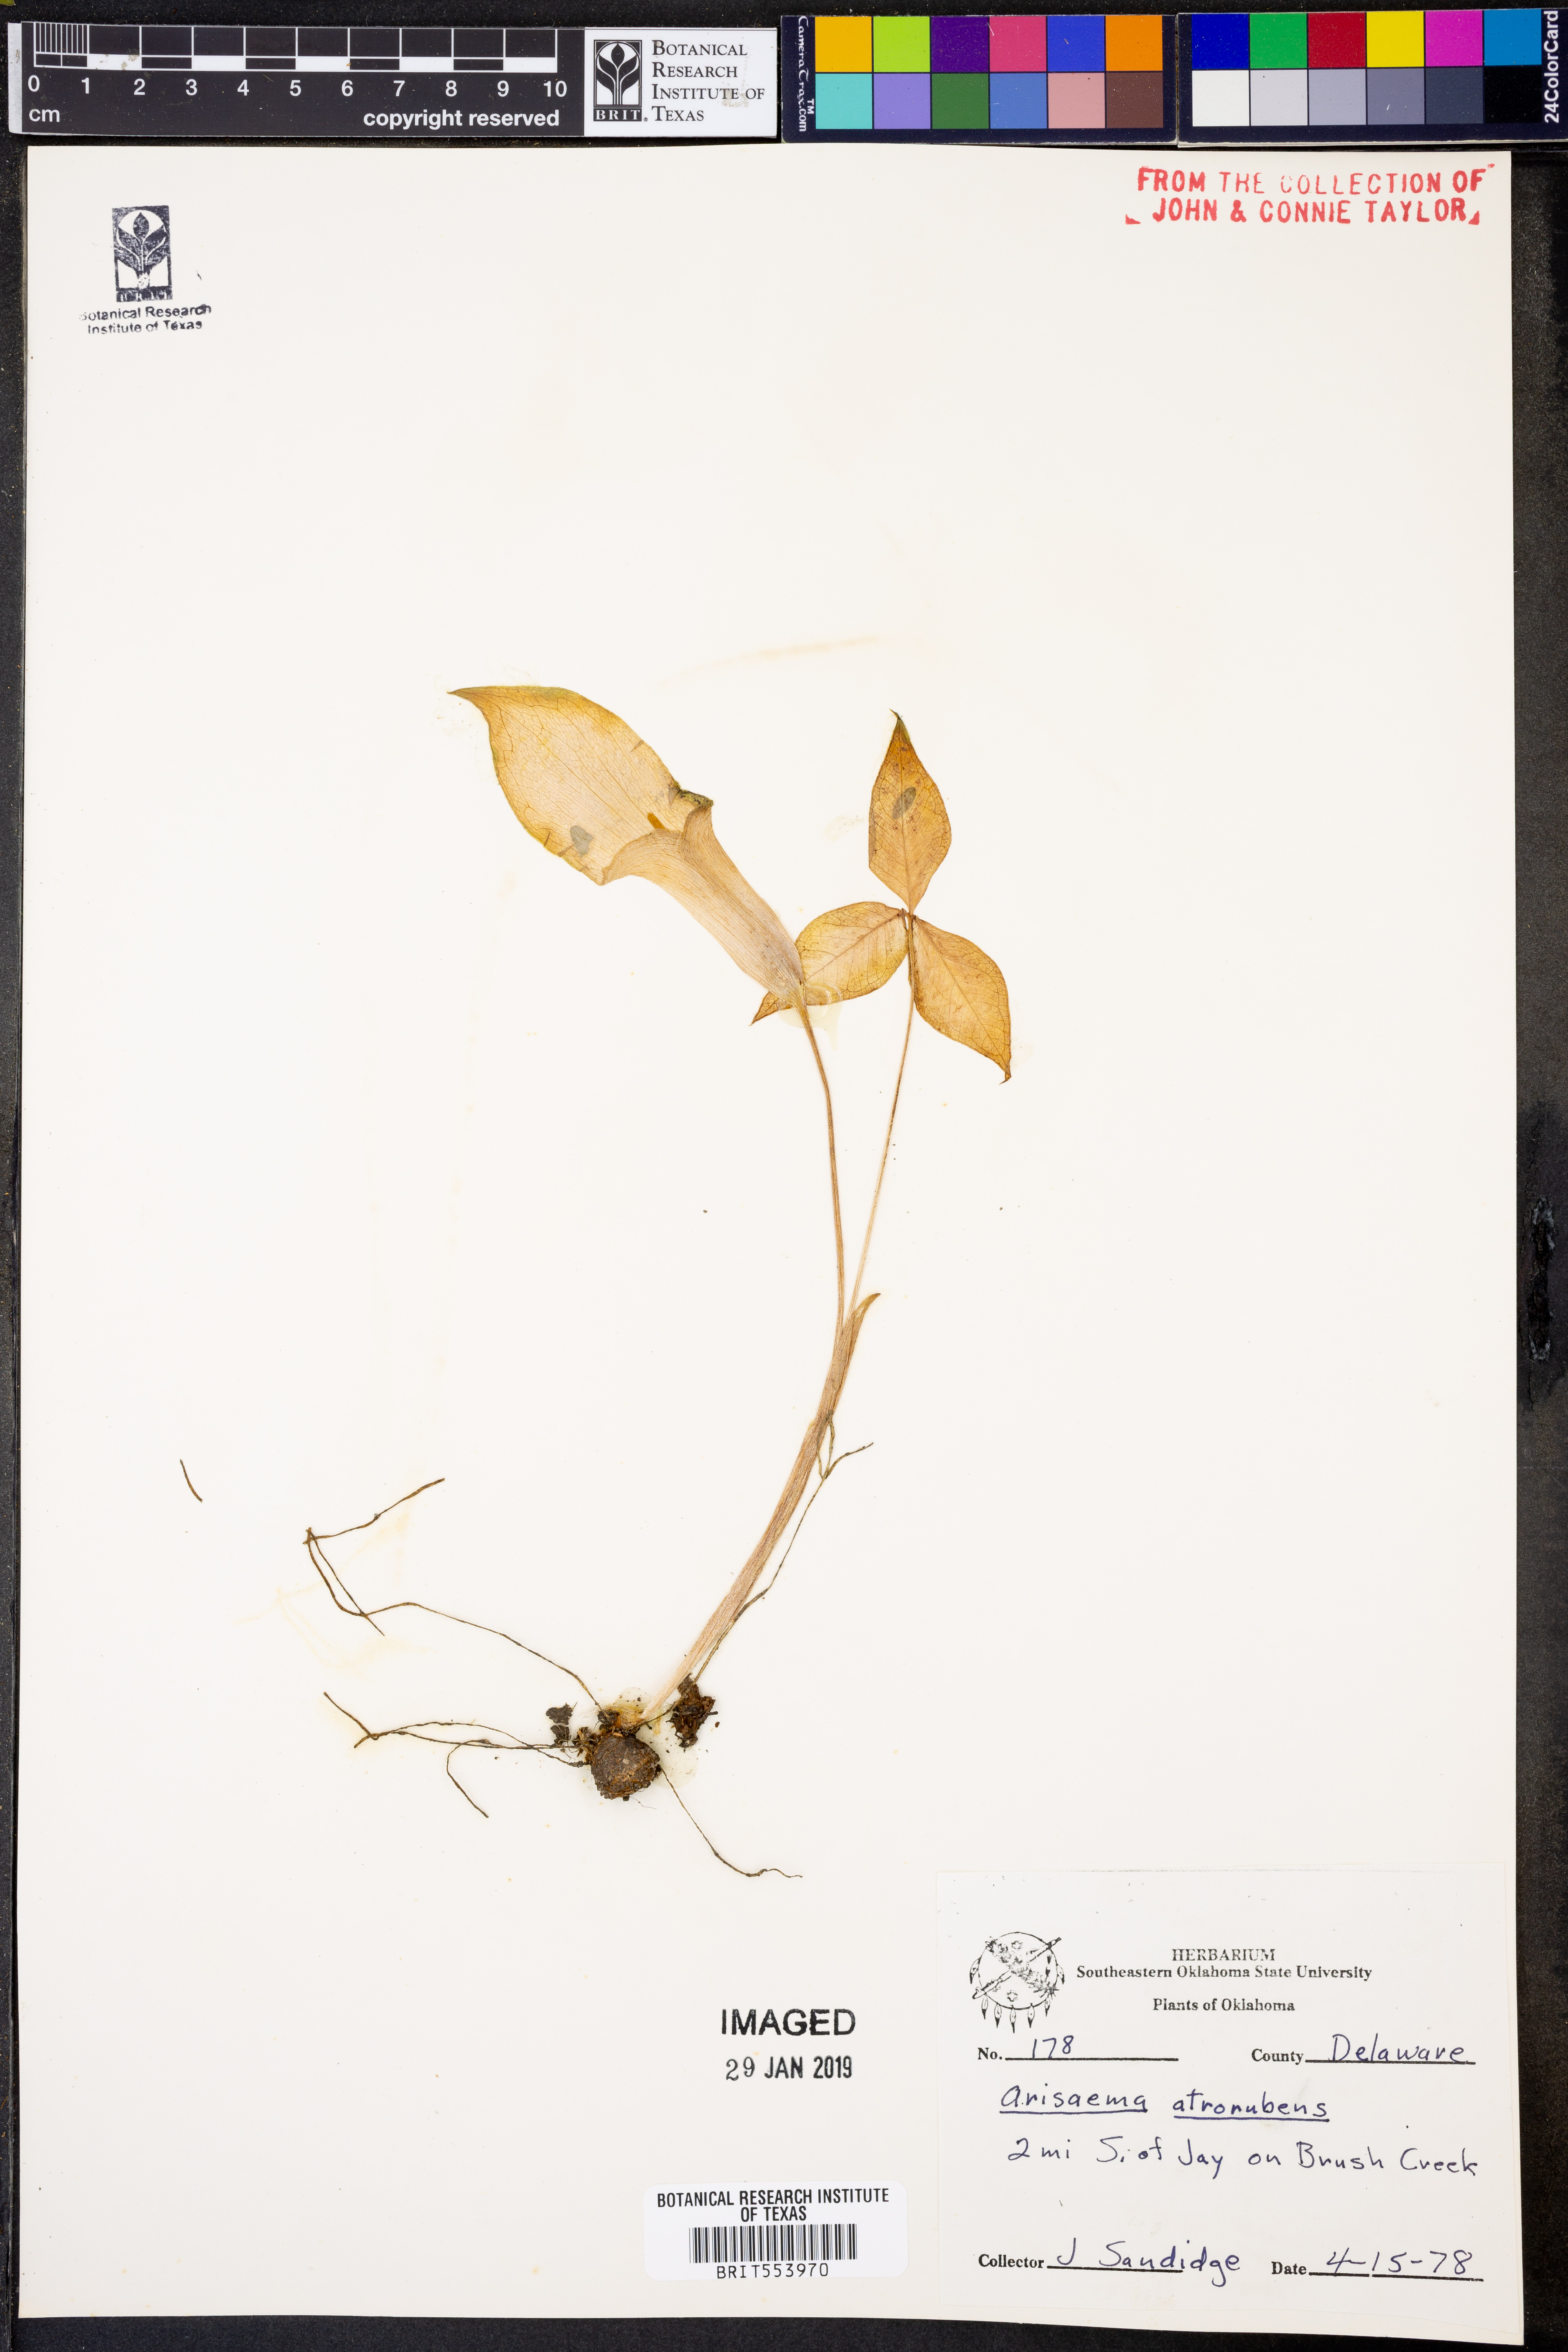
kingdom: Plantae
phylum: Tracheophyta
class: Liliopsida
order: Alismatales
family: Araceae
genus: Arisaema
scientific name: Arisaema triphyllum
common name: Jack-in-the-pulpit
